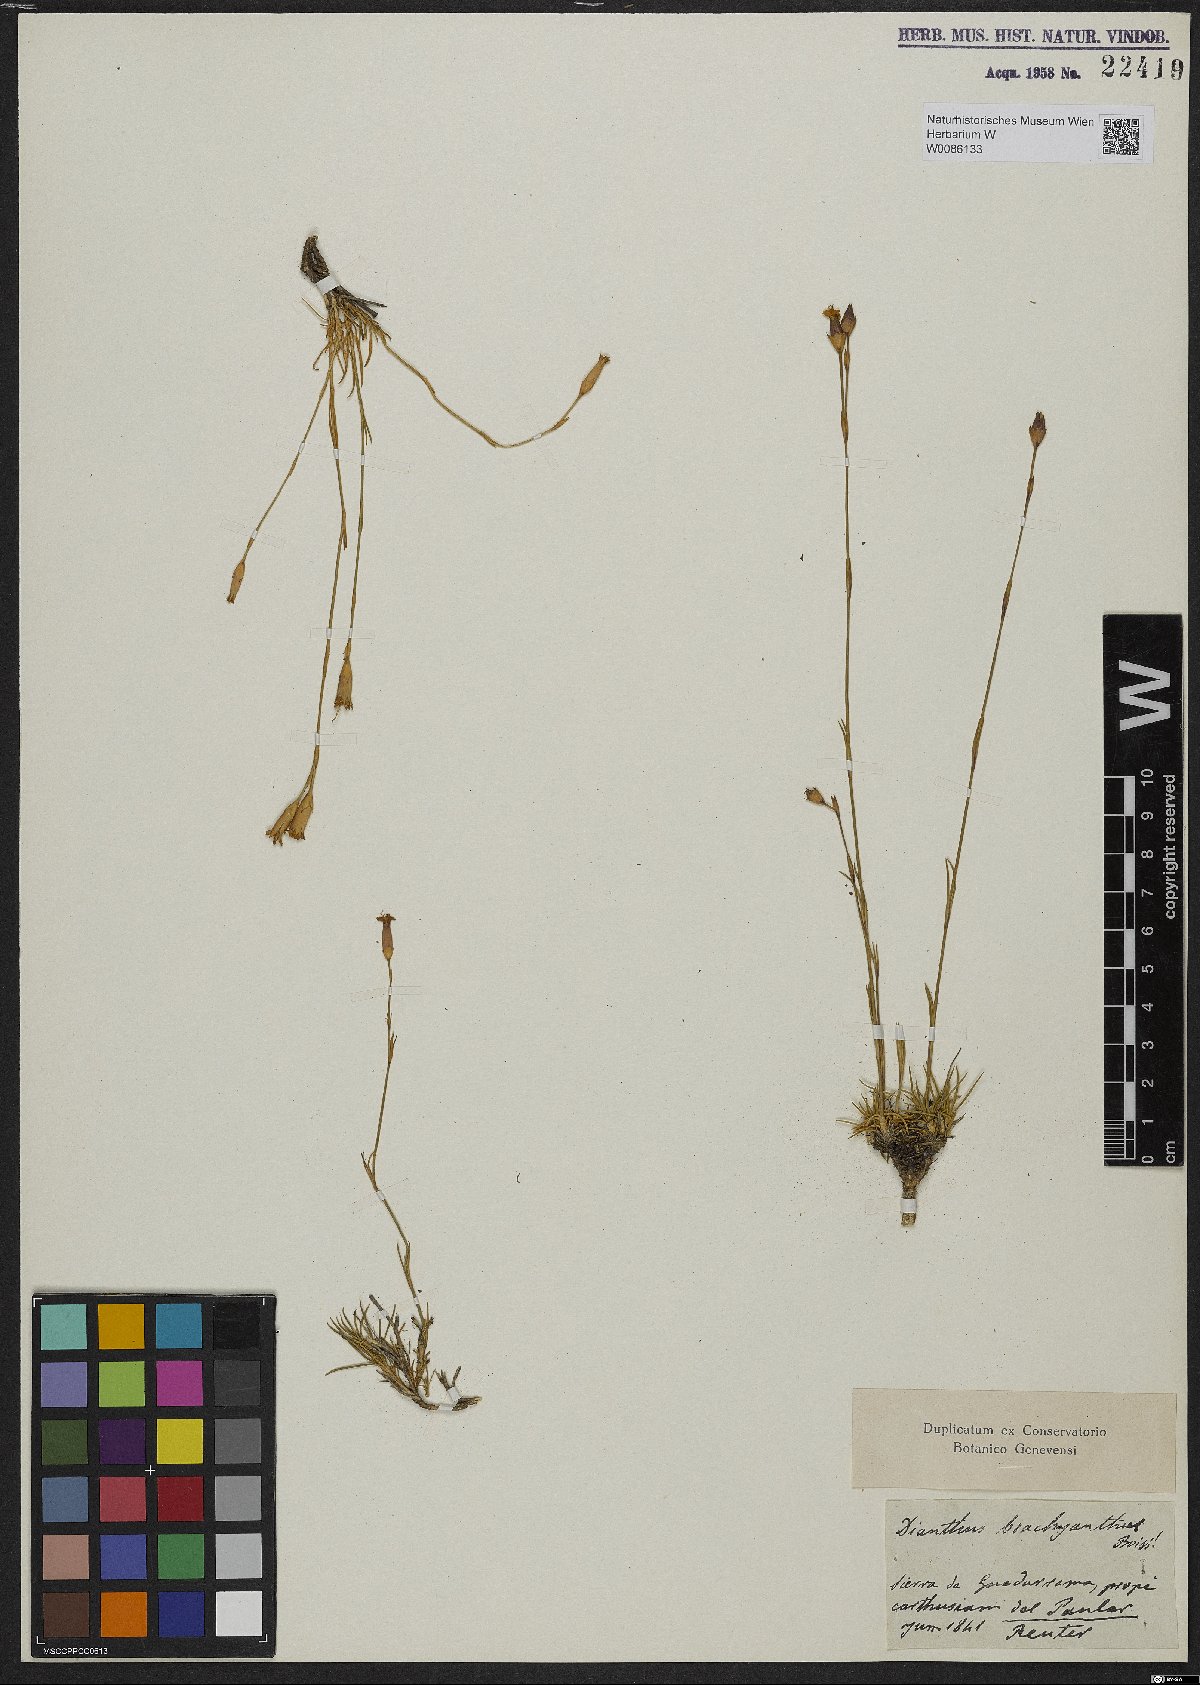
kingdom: Plantae
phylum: Tracheophyta
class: Magnoliopsida
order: Caryophyllales
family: Caryophyllaceae
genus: Dianthus
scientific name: Dianthus pungens
